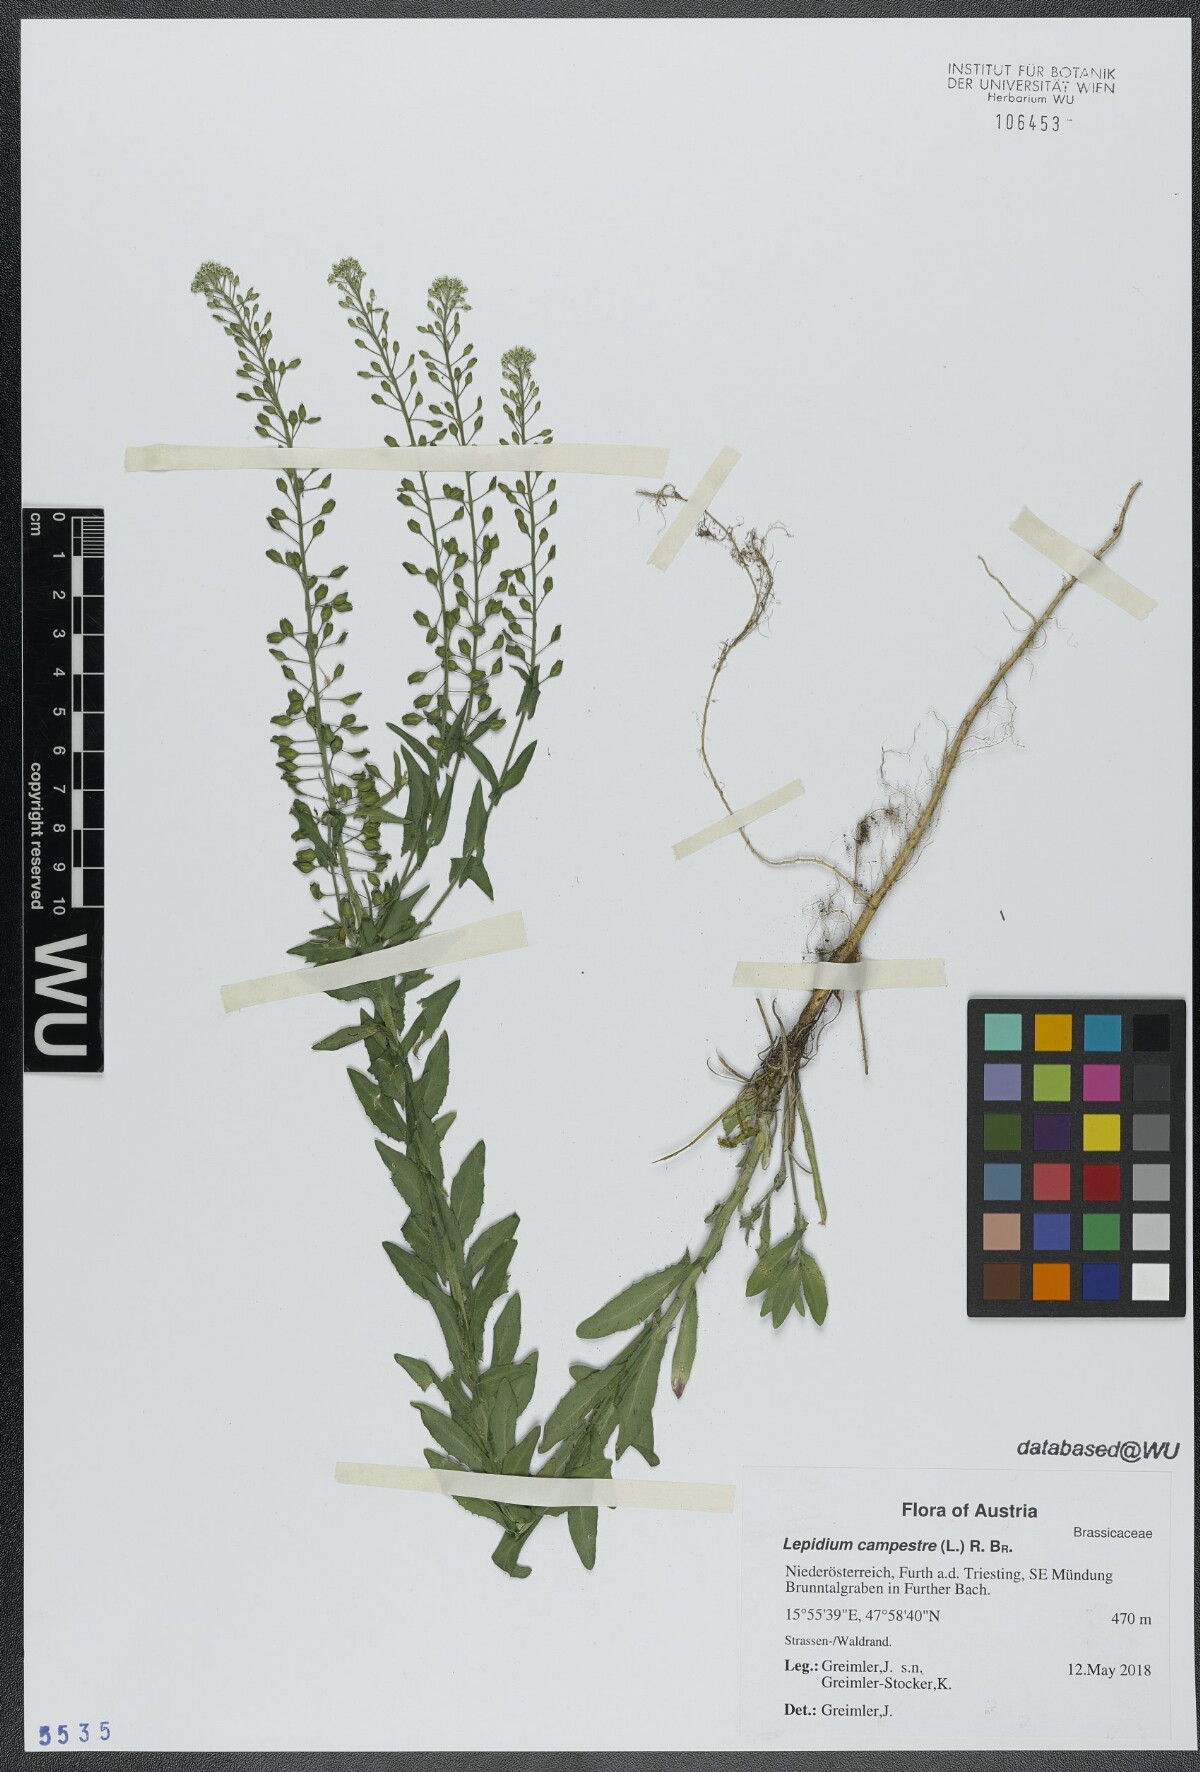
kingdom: Plantae
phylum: Tracheophyta
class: Magnoliopsida
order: Brassicales
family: Brassicaceae
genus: Lepidium
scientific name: Lepidium campestre
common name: Field pepperwort
